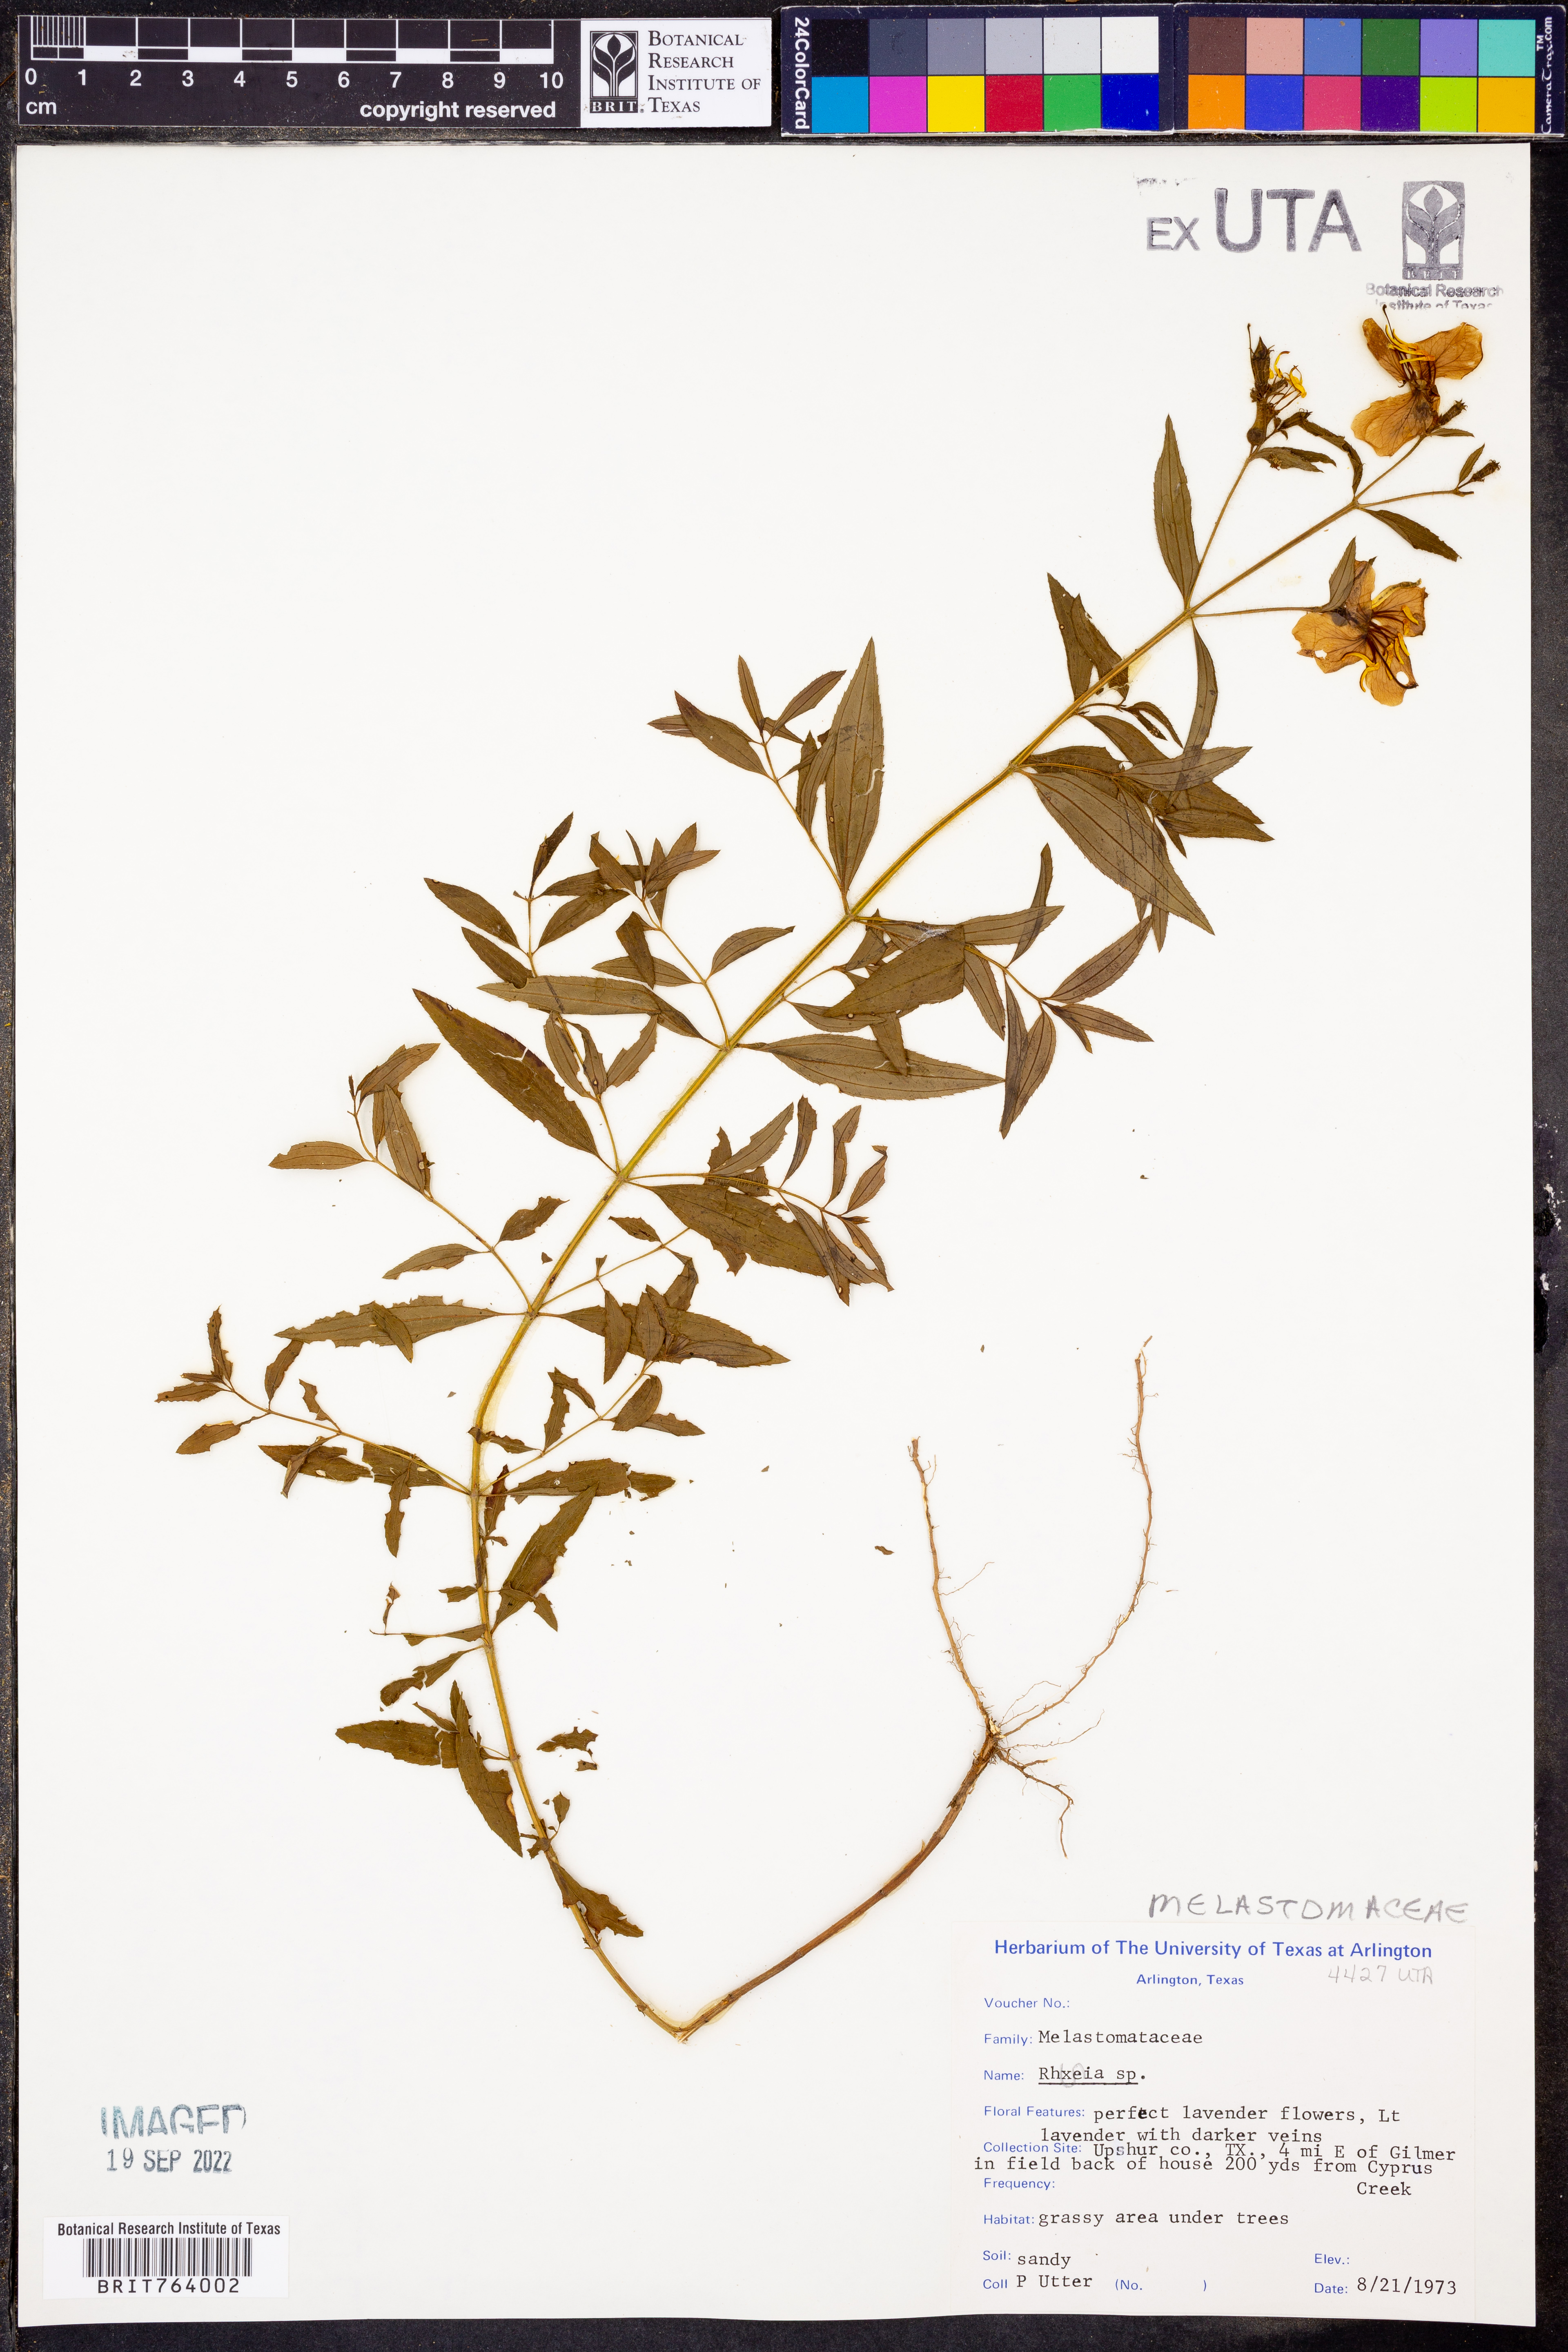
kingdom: Plantae
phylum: Tracheophyta
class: Magnoliopsida
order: Myrtales
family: Melastomataceae
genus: Rhexia
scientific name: Rhexia
